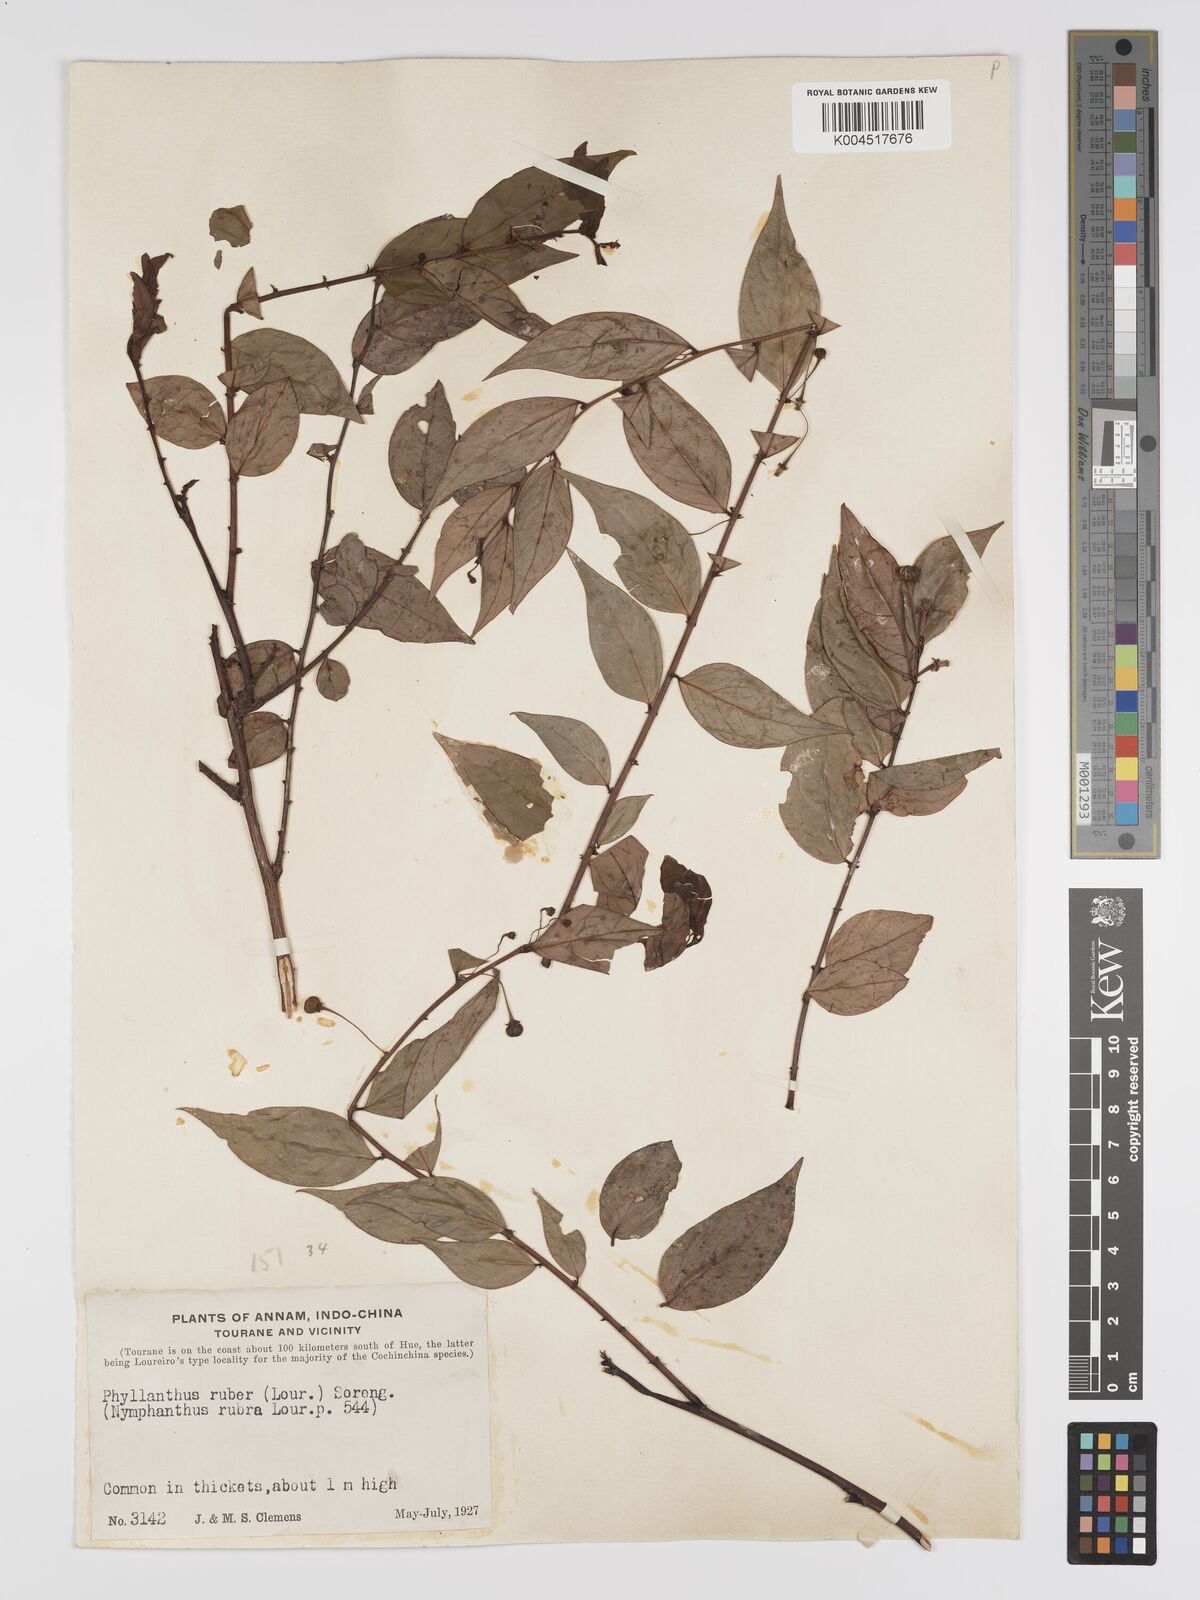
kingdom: Plantae
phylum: Tracheophyta
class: Magnoliopsida
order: Malpighiales
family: Phyllanthaceae
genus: Phyllanthus
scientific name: Phyllanthus
